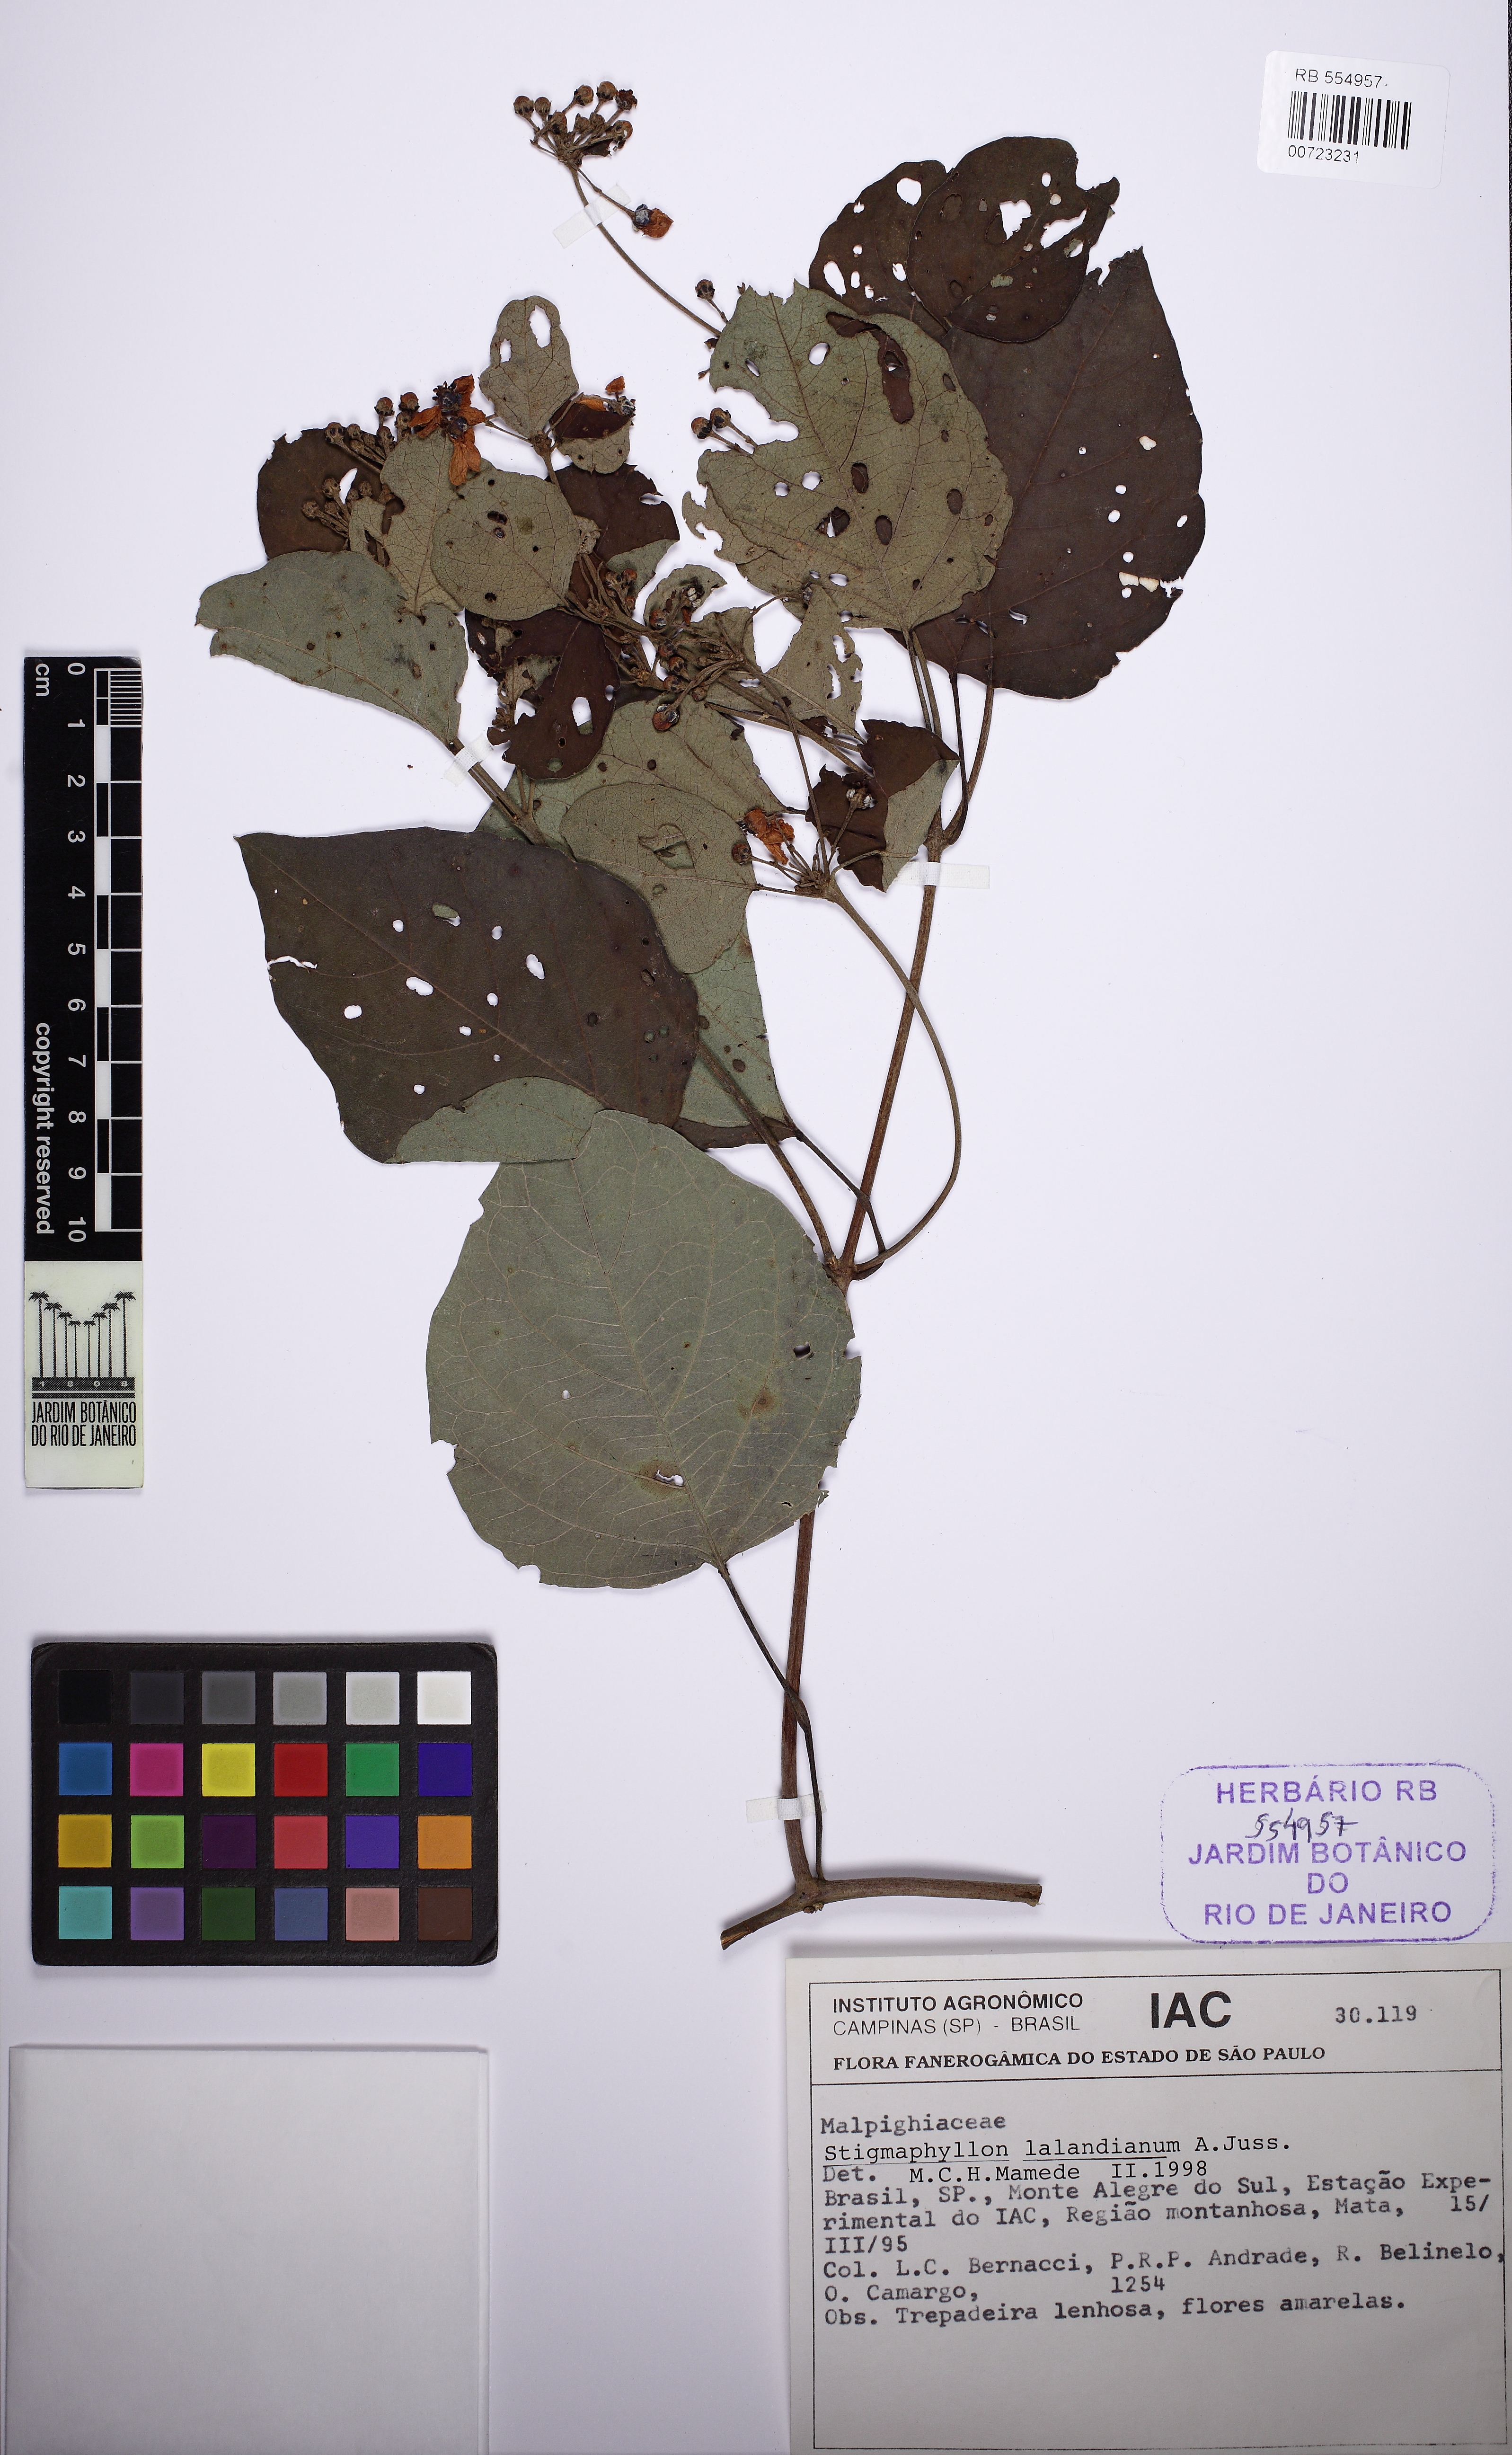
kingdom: Plantae
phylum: Tracheophyta
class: Magnoliopsida
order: Malpighiales
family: Malpighiaceae
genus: Stigmaphyllon
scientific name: Stigmaphyllon lalandianum
